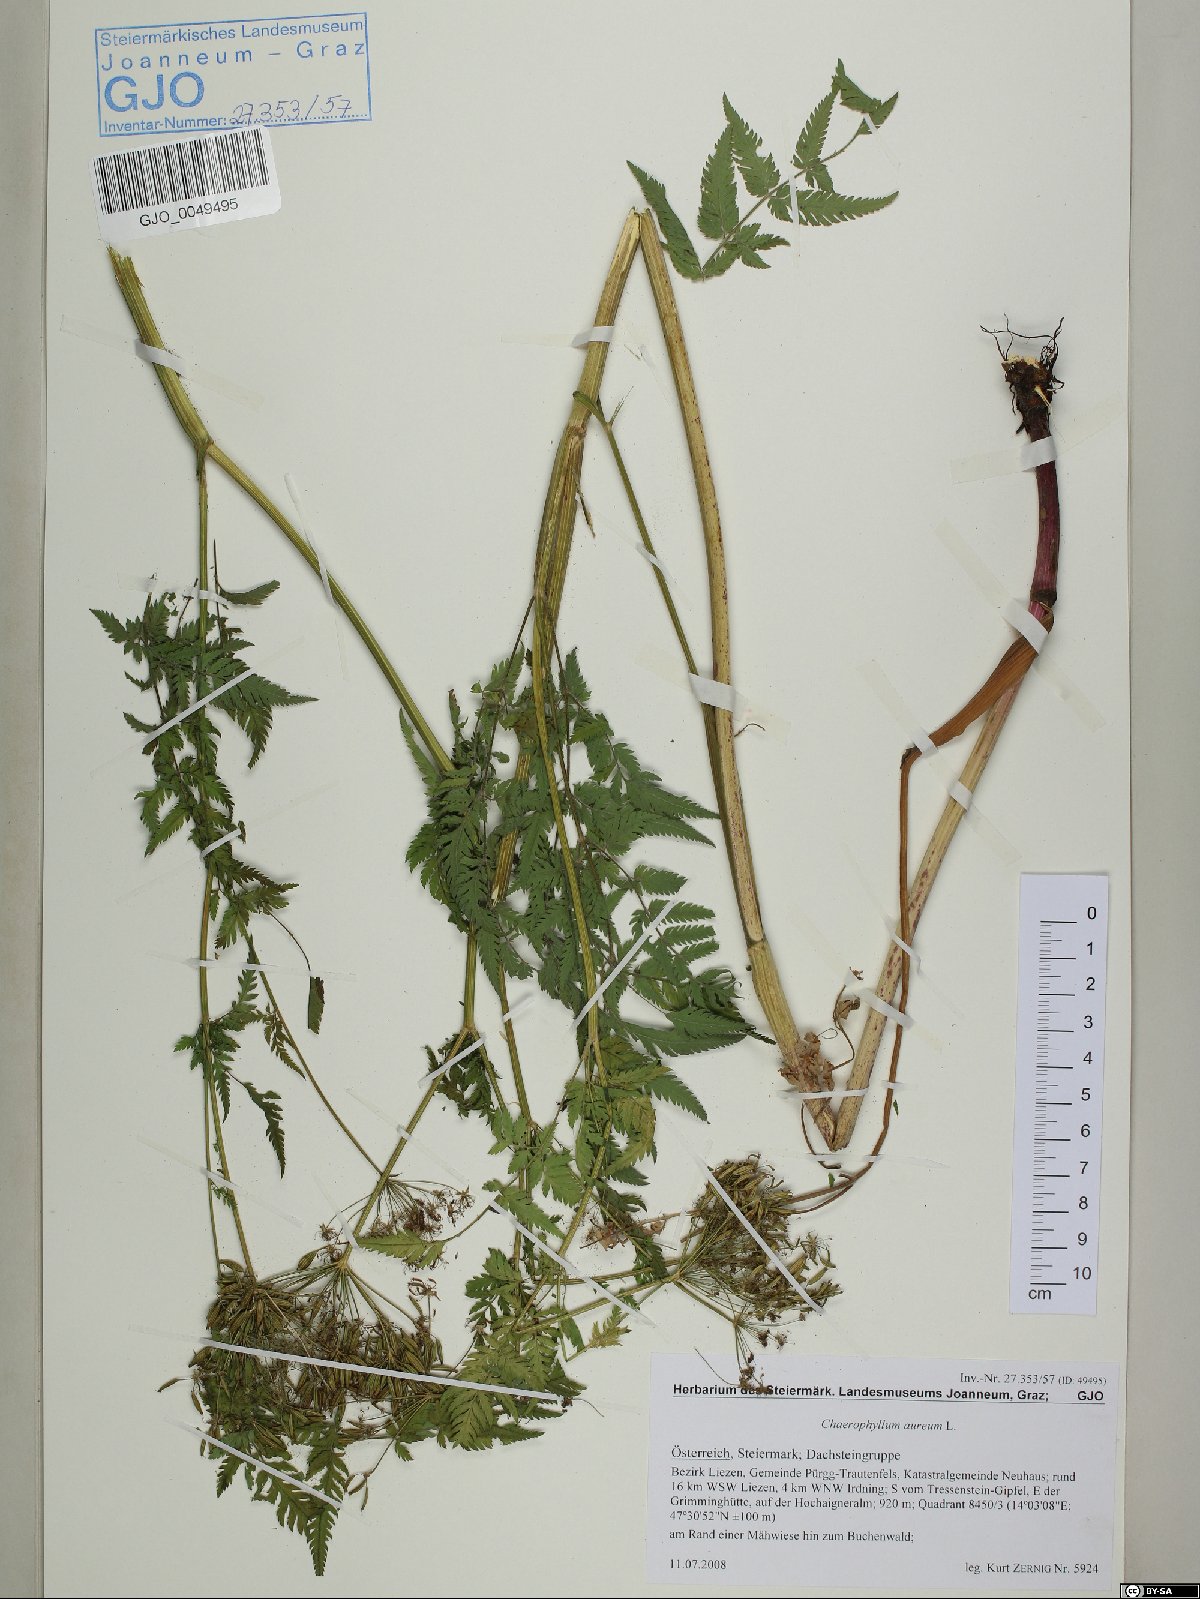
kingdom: Plantae
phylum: Tracheophyta
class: Magnoliopsida
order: Apiales
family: Apiaceae
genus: Chaerophyllum
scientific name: Chaerophyllum aureum
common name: Golden chervil
